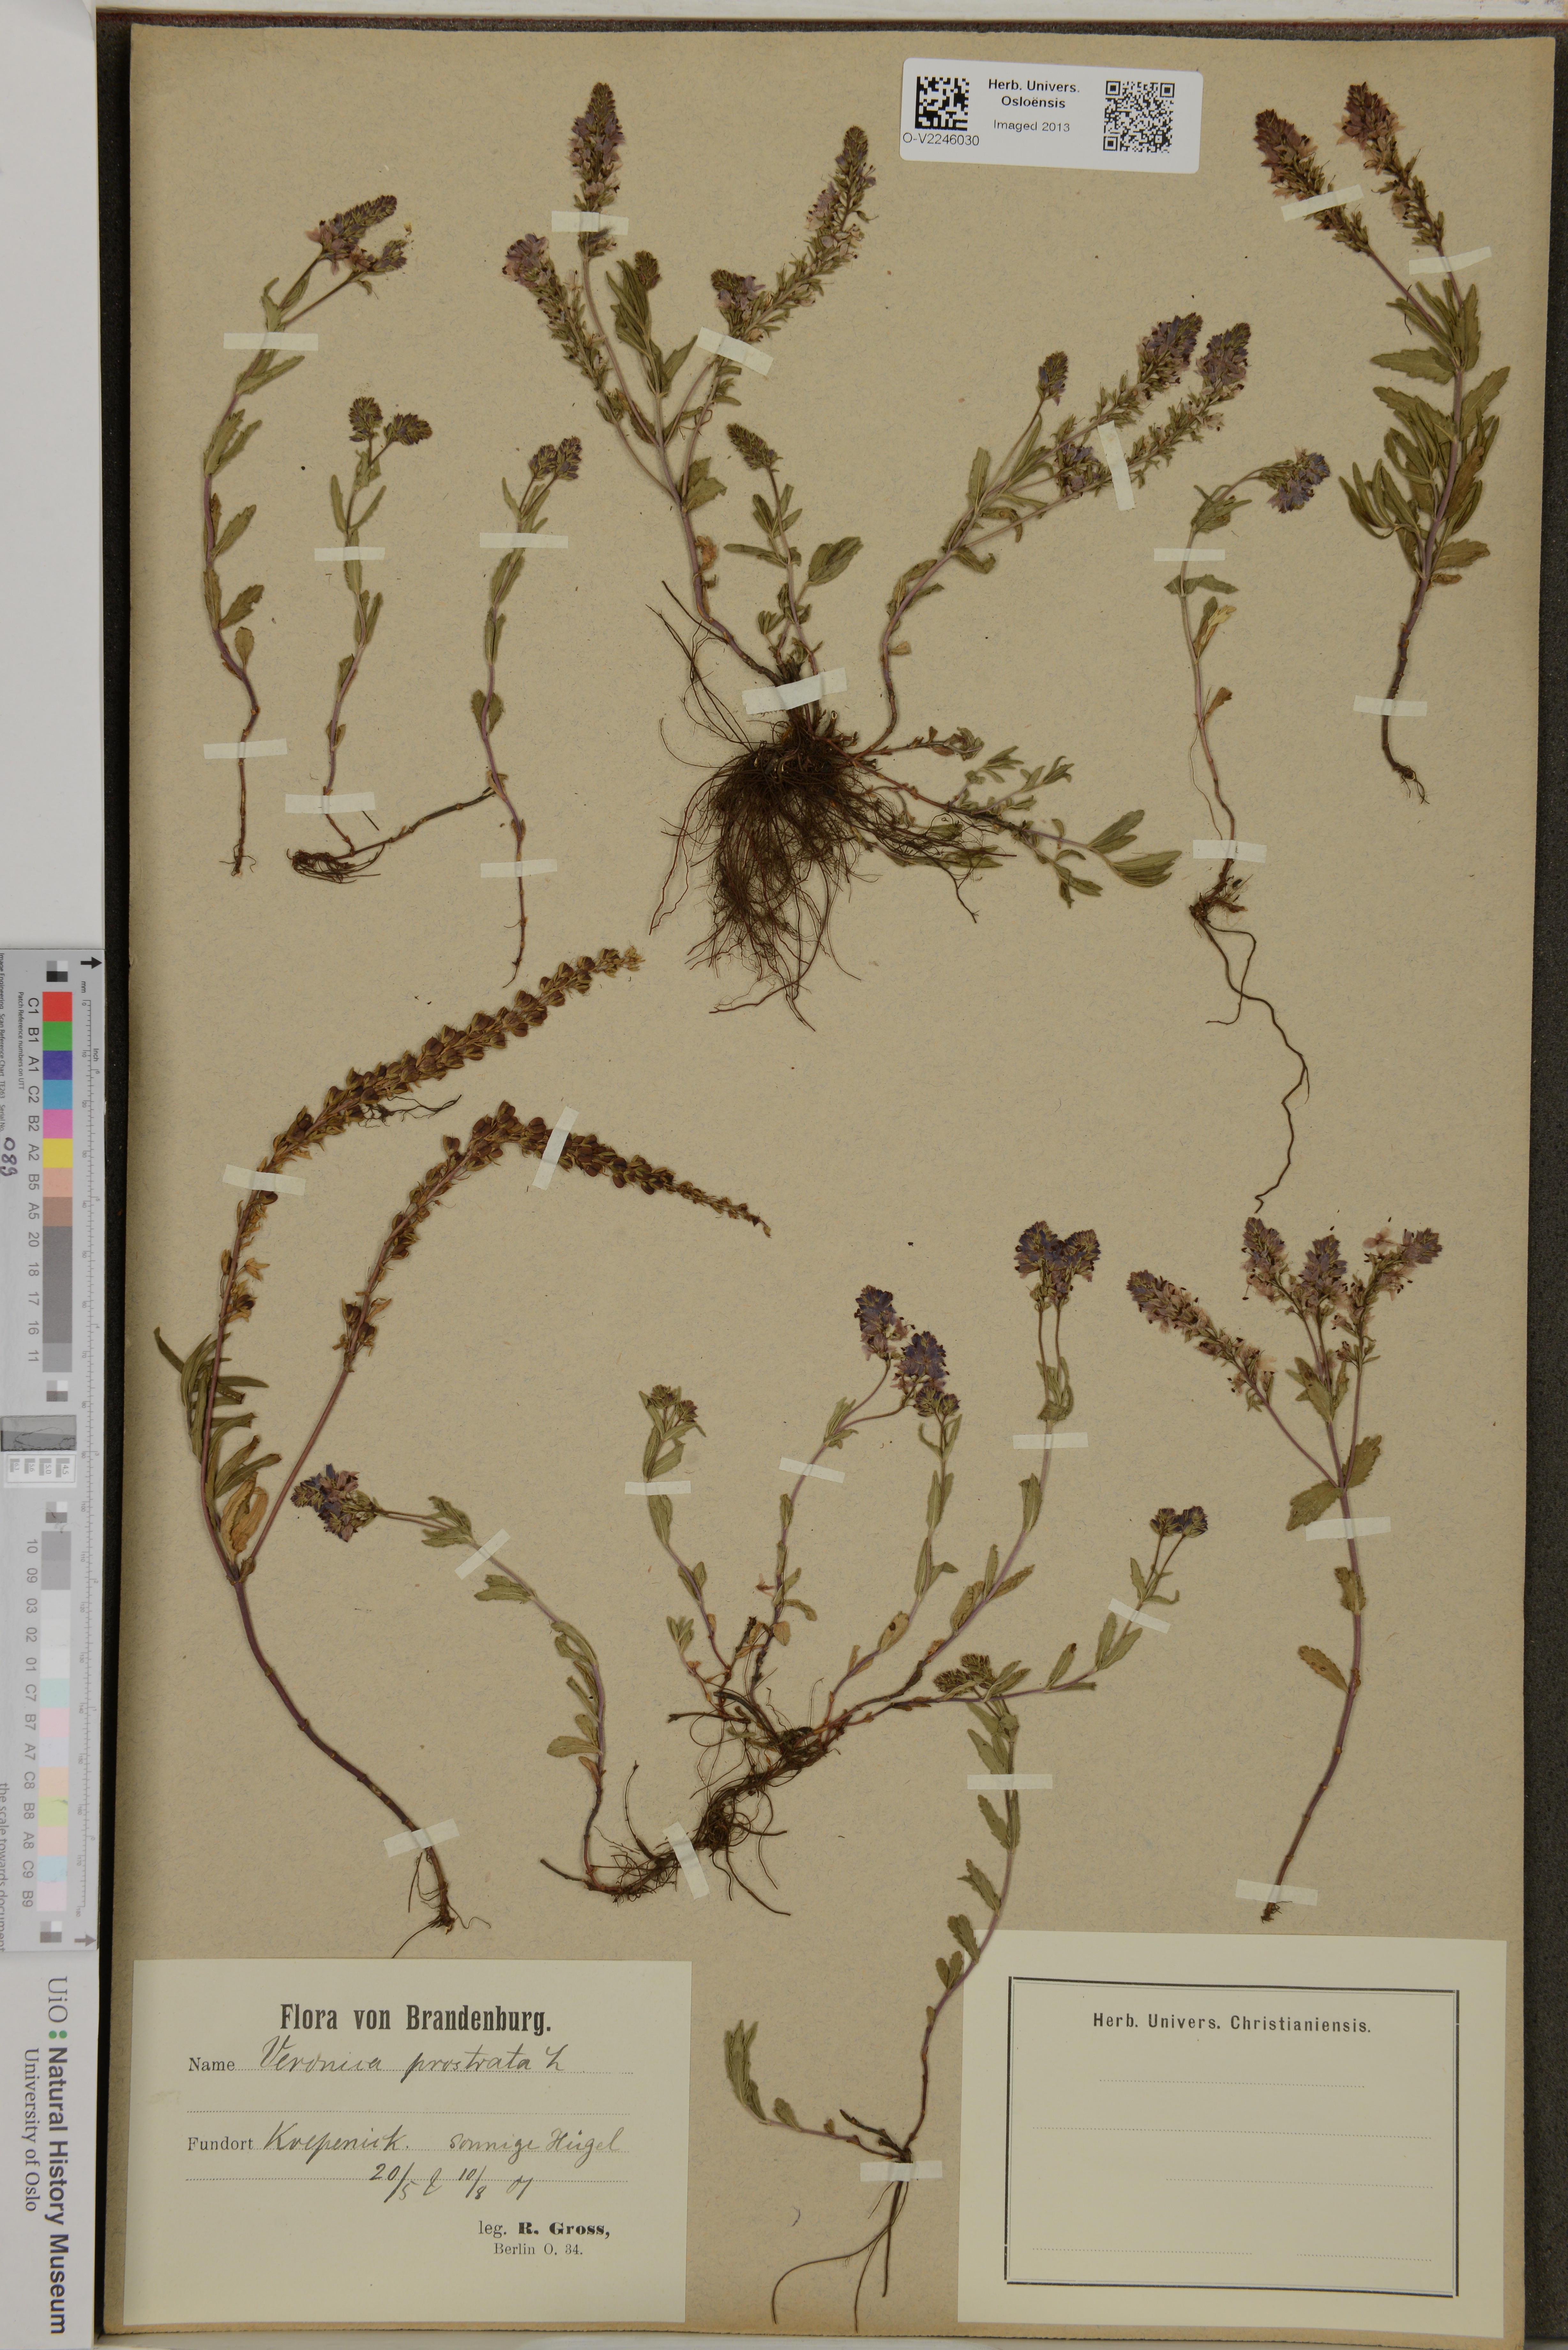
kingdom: Plantae
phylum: Tracheophyta
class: Magnoliopsida
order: Lamiales
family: Plantaginaceae
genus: Veronica
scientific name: Veronica prostrata
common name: Prostrate speedwell
